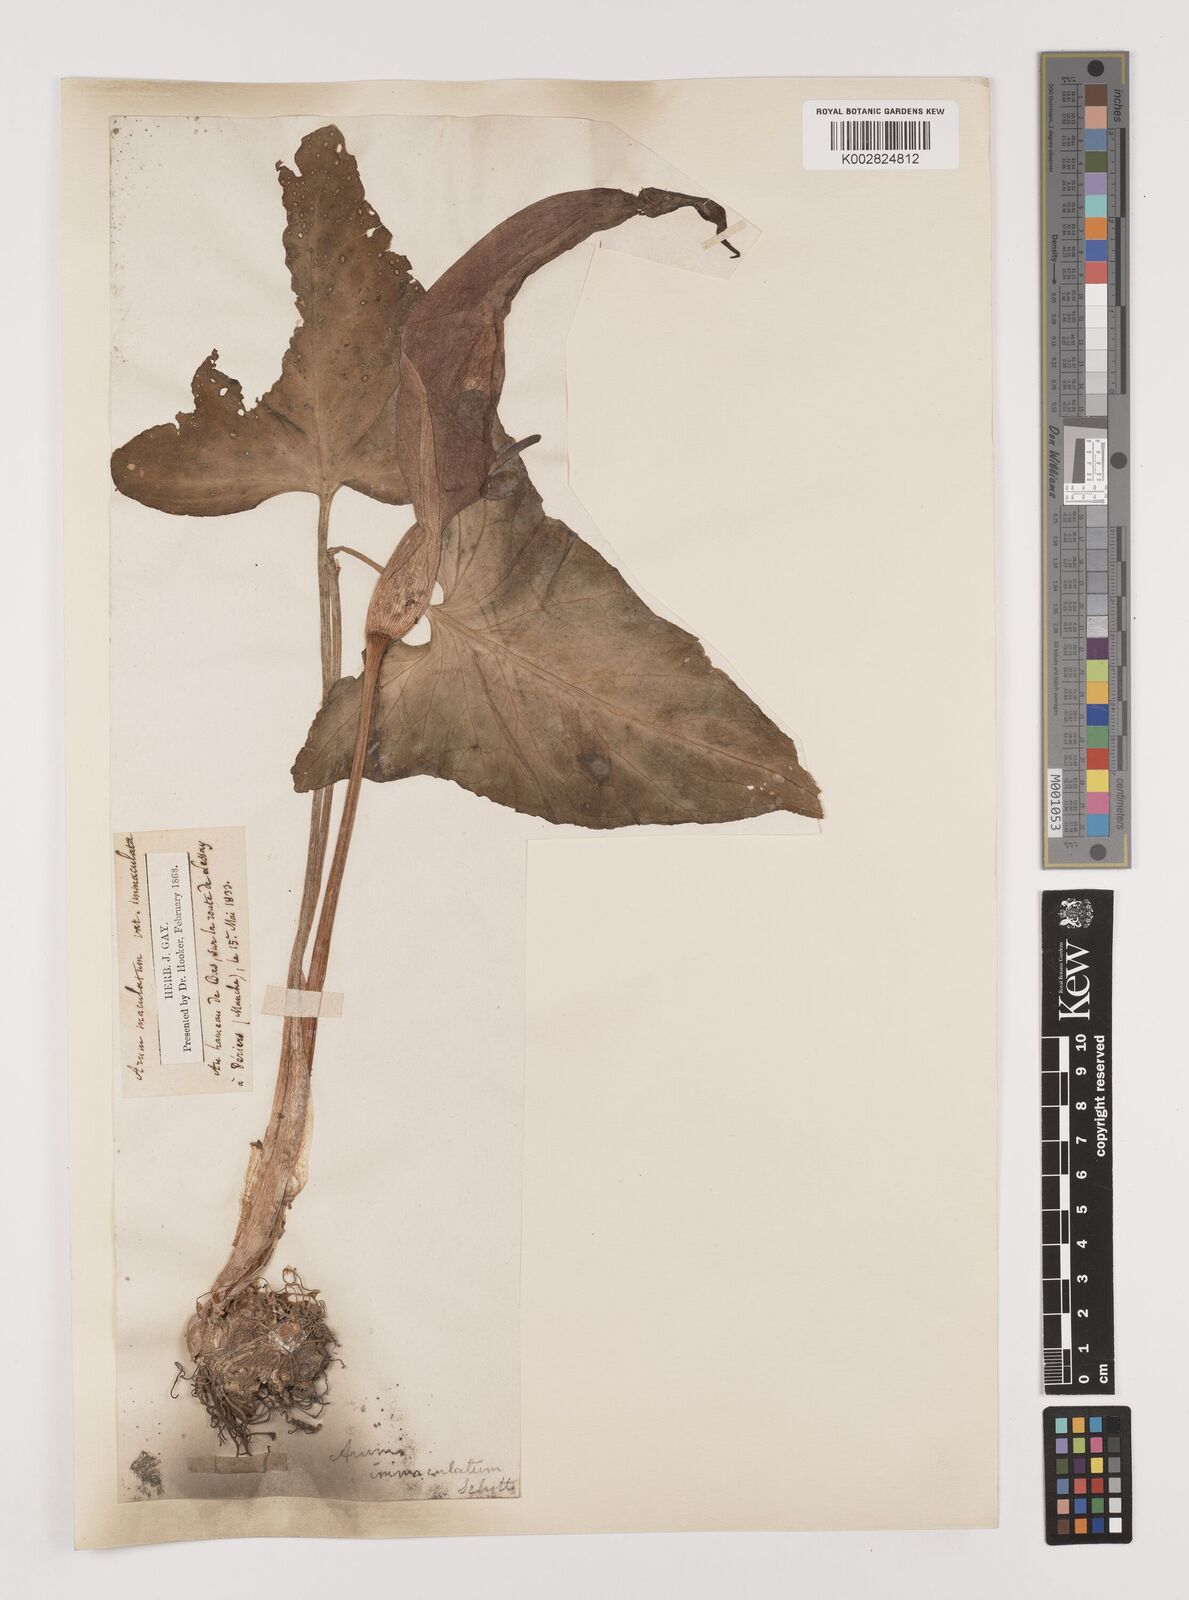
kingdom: Plantae
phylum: Tracheophyta
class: Liliopsida
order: Alismatales
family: Araceae
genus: Arum
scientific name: Arum maculatum
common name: Lords-and-ladies
